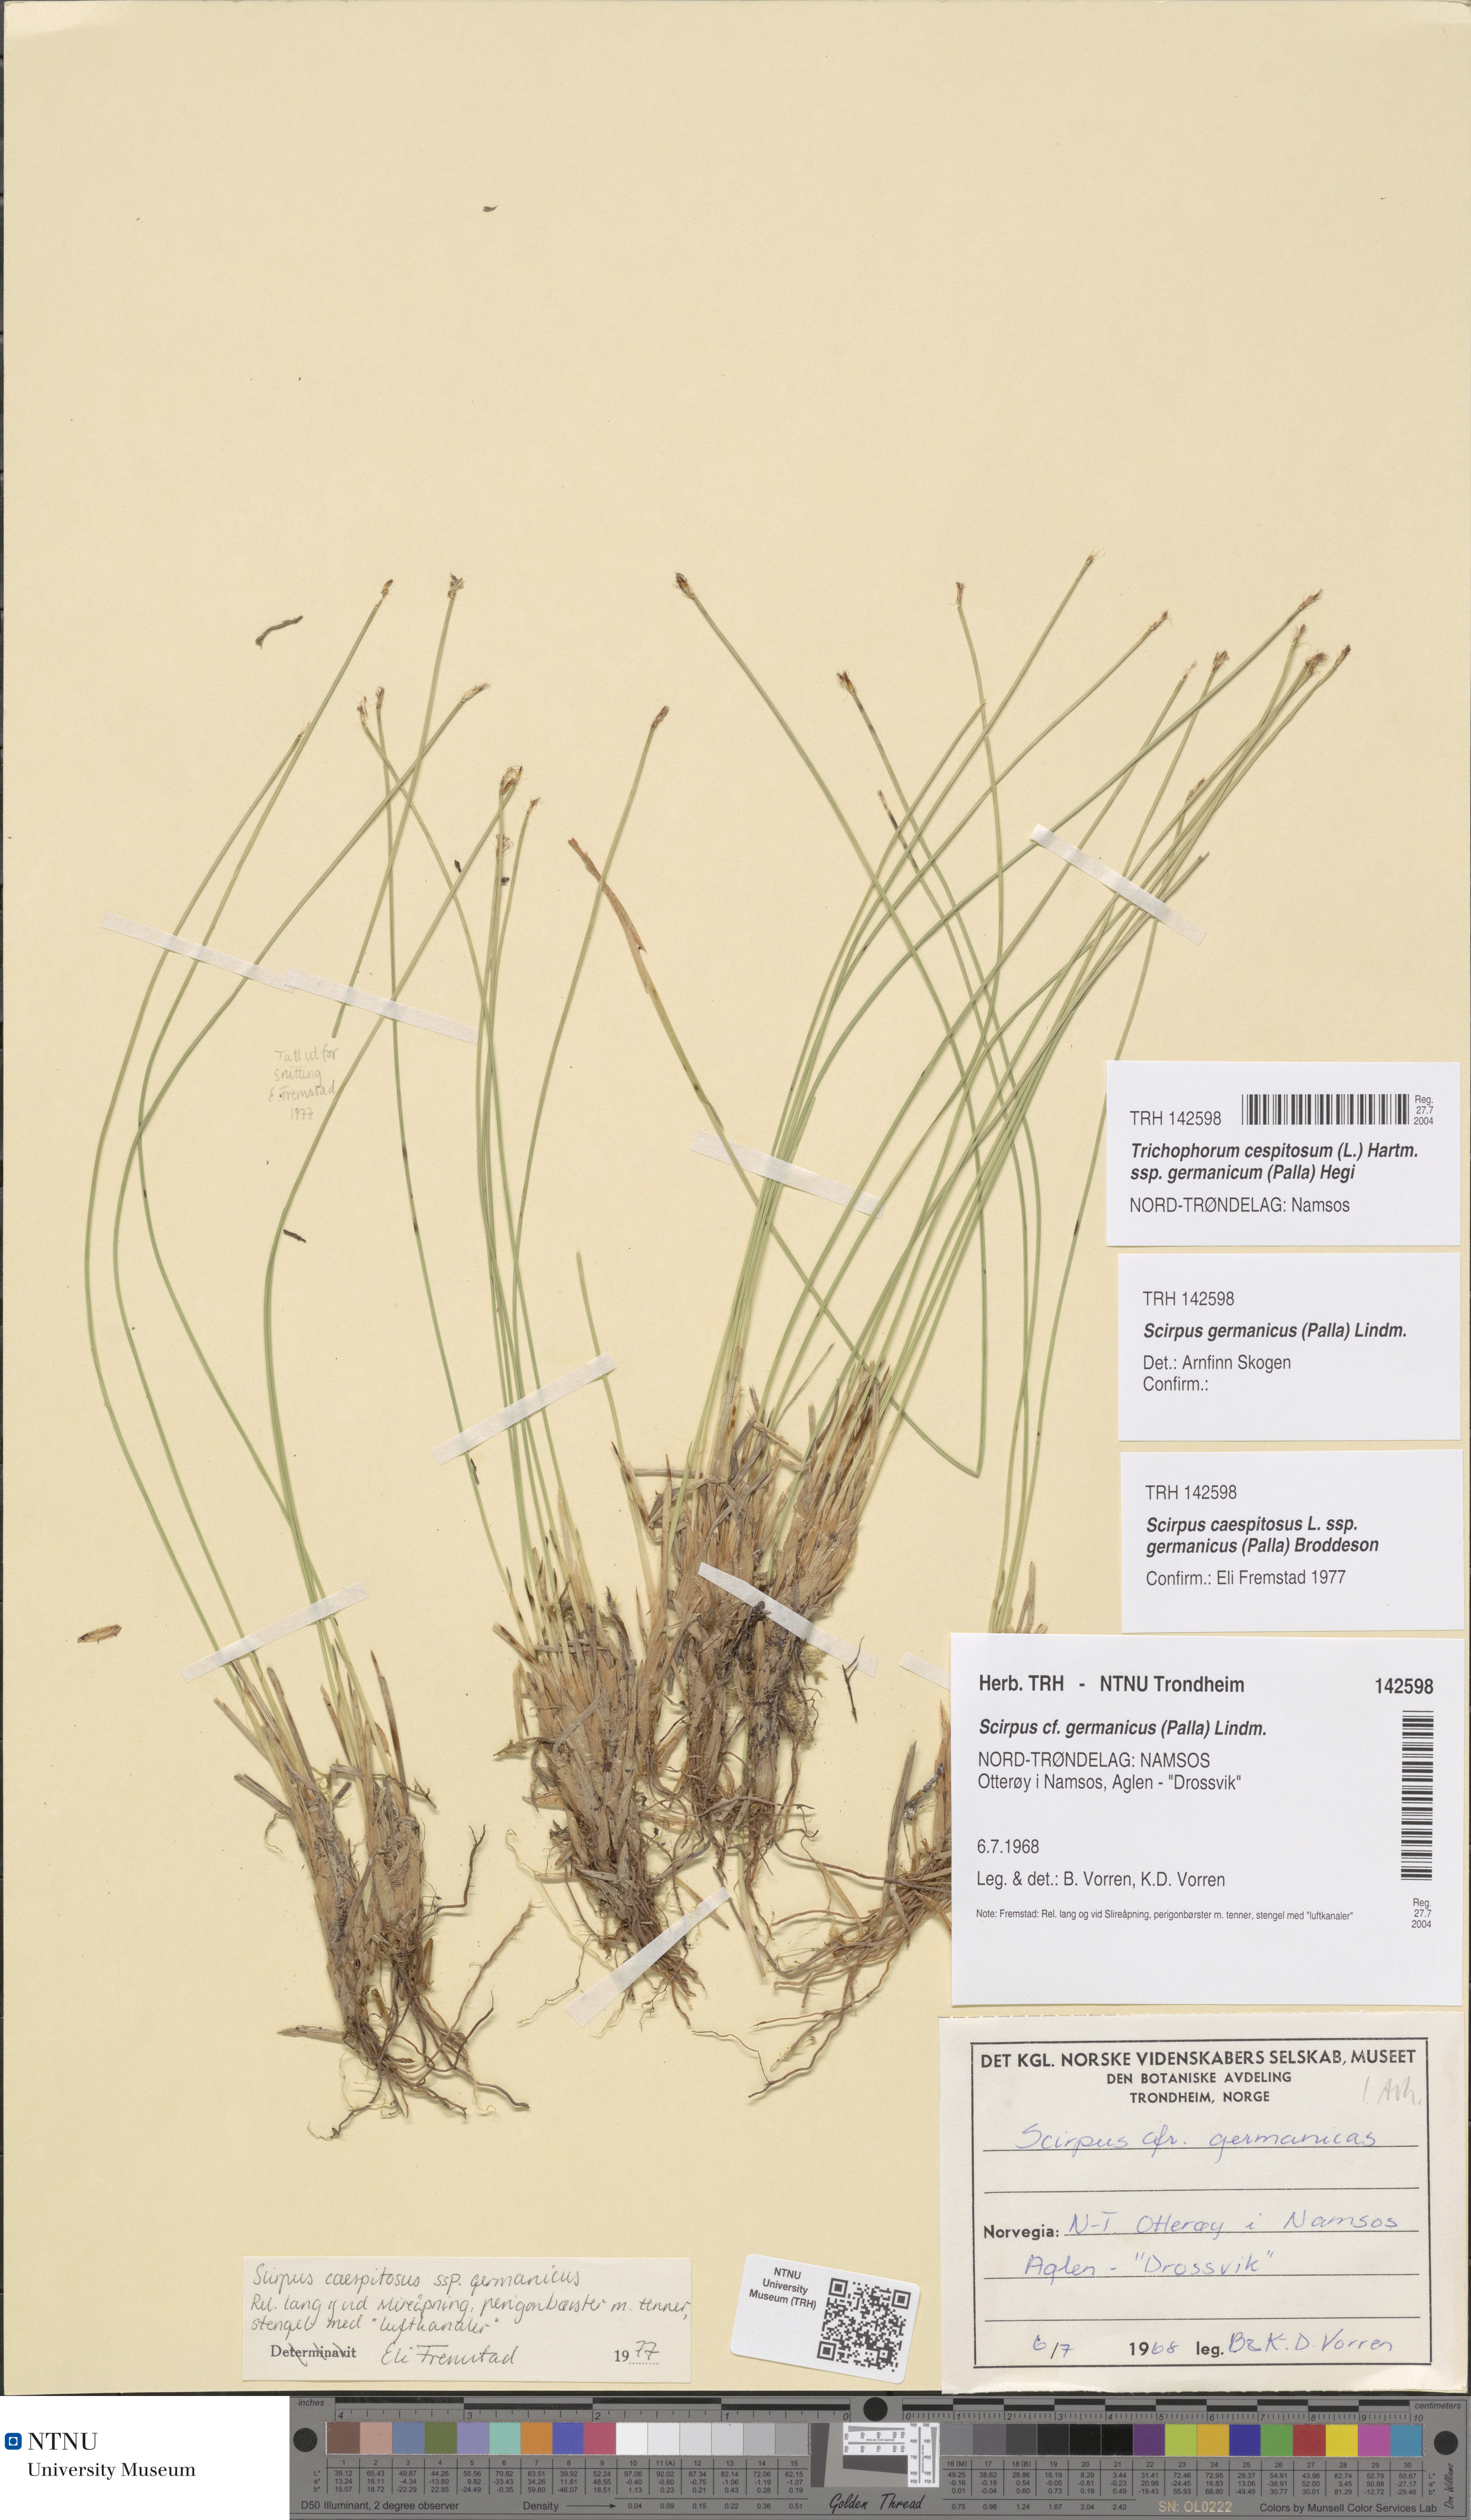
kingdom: Plantae
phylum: Tracheophyta
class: Liliopsida
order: Poales
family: Cyperaceae
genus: Trichophorum
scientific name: Trichophorum cespitosum
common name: Cespitose bulrush
